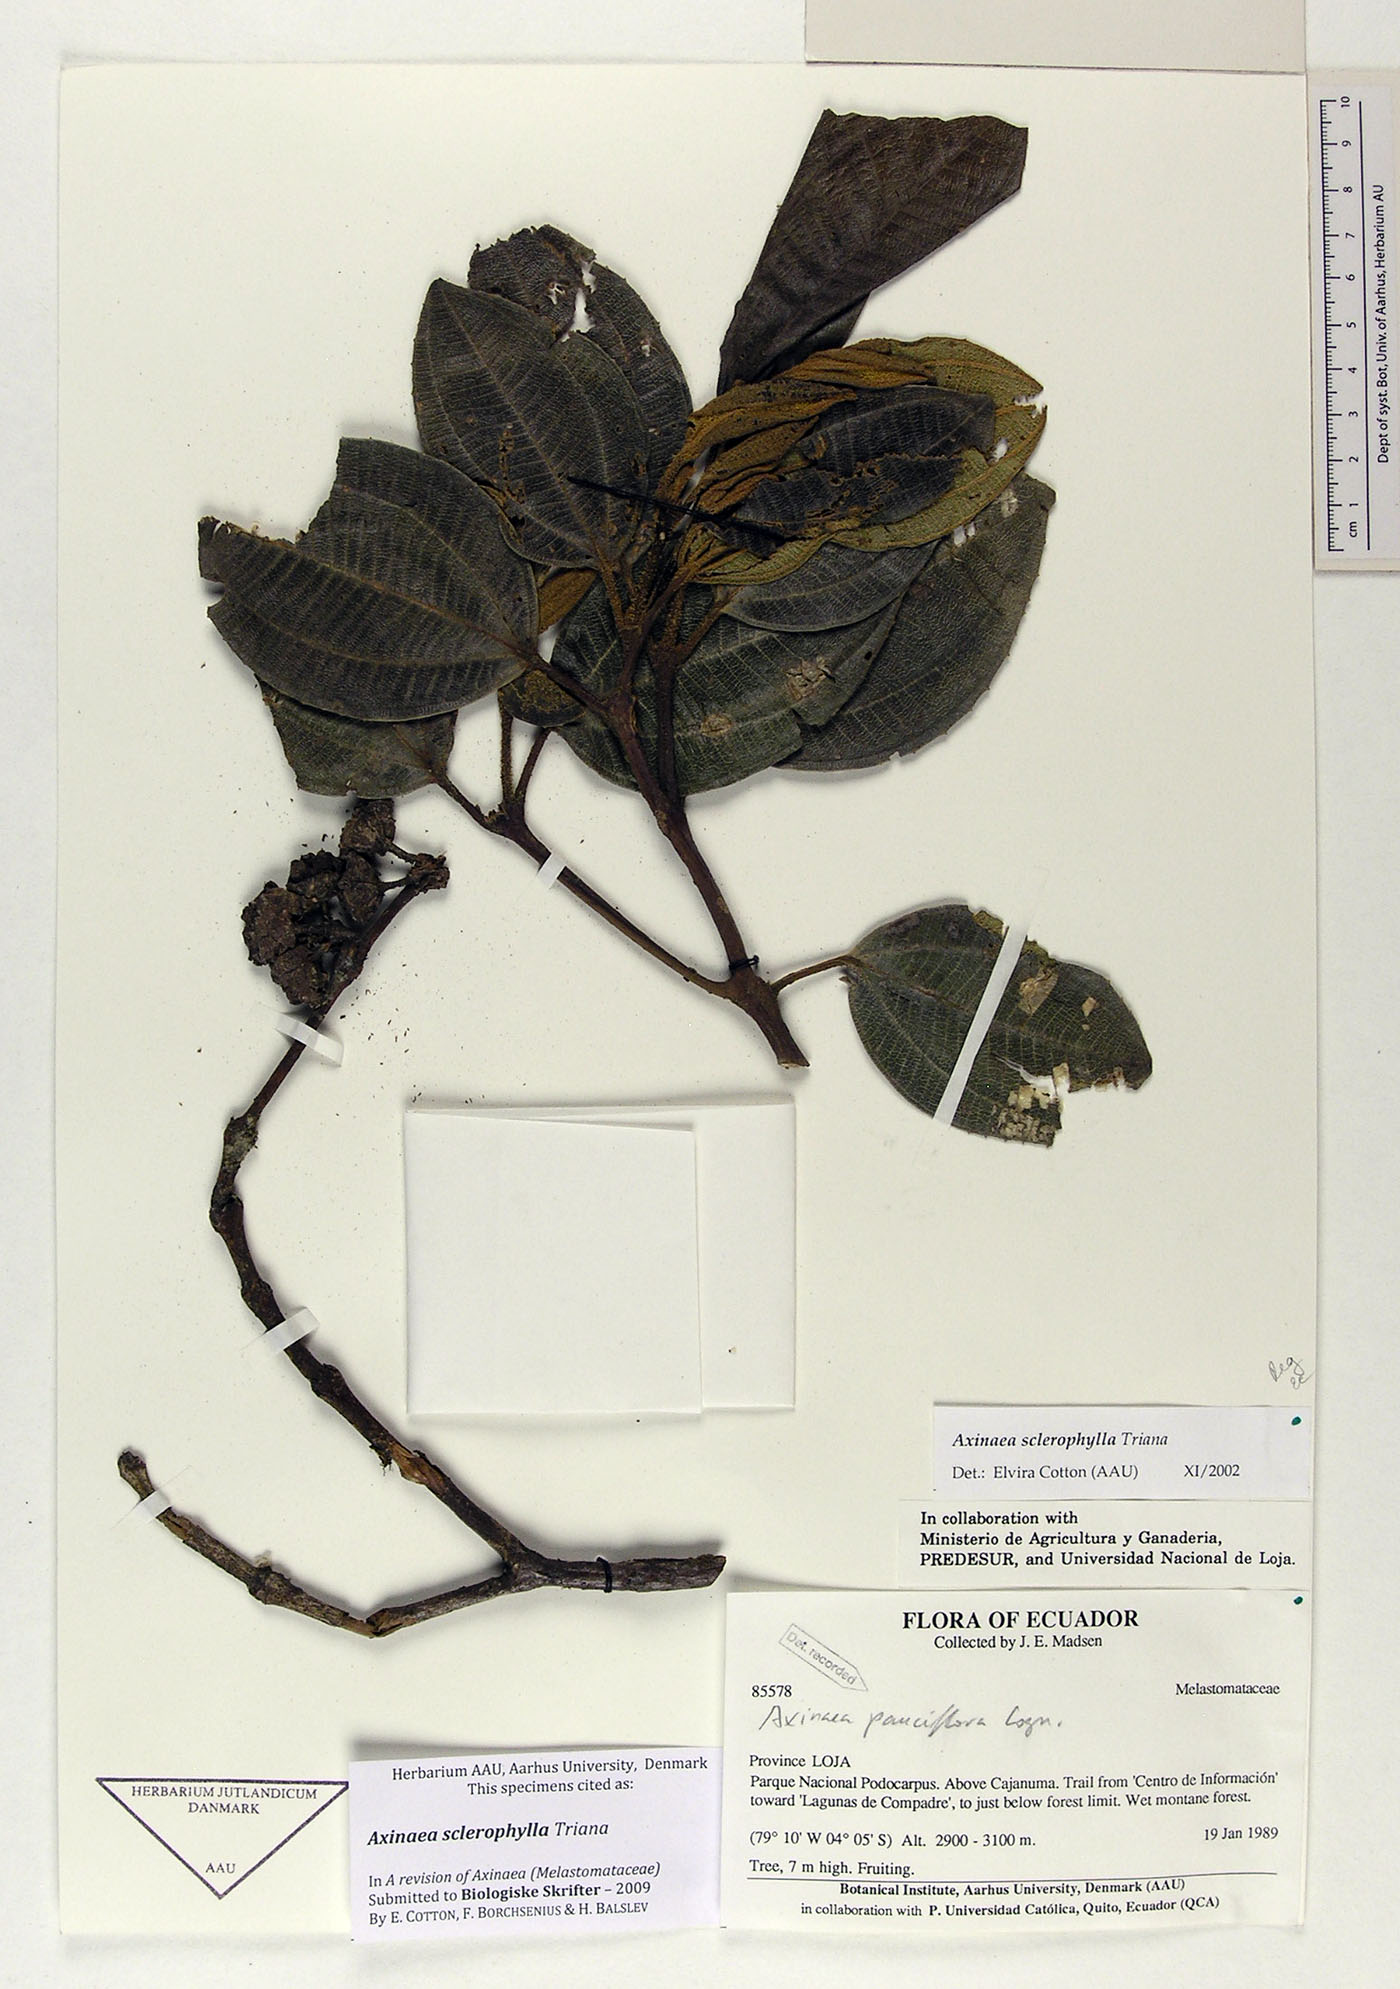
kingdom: Plantae
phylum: Tracheophyta
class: Magnoliopsida
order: Myrtales
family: Melastomataceae
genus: Axinaea
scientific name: Axinaea sclerophylla
